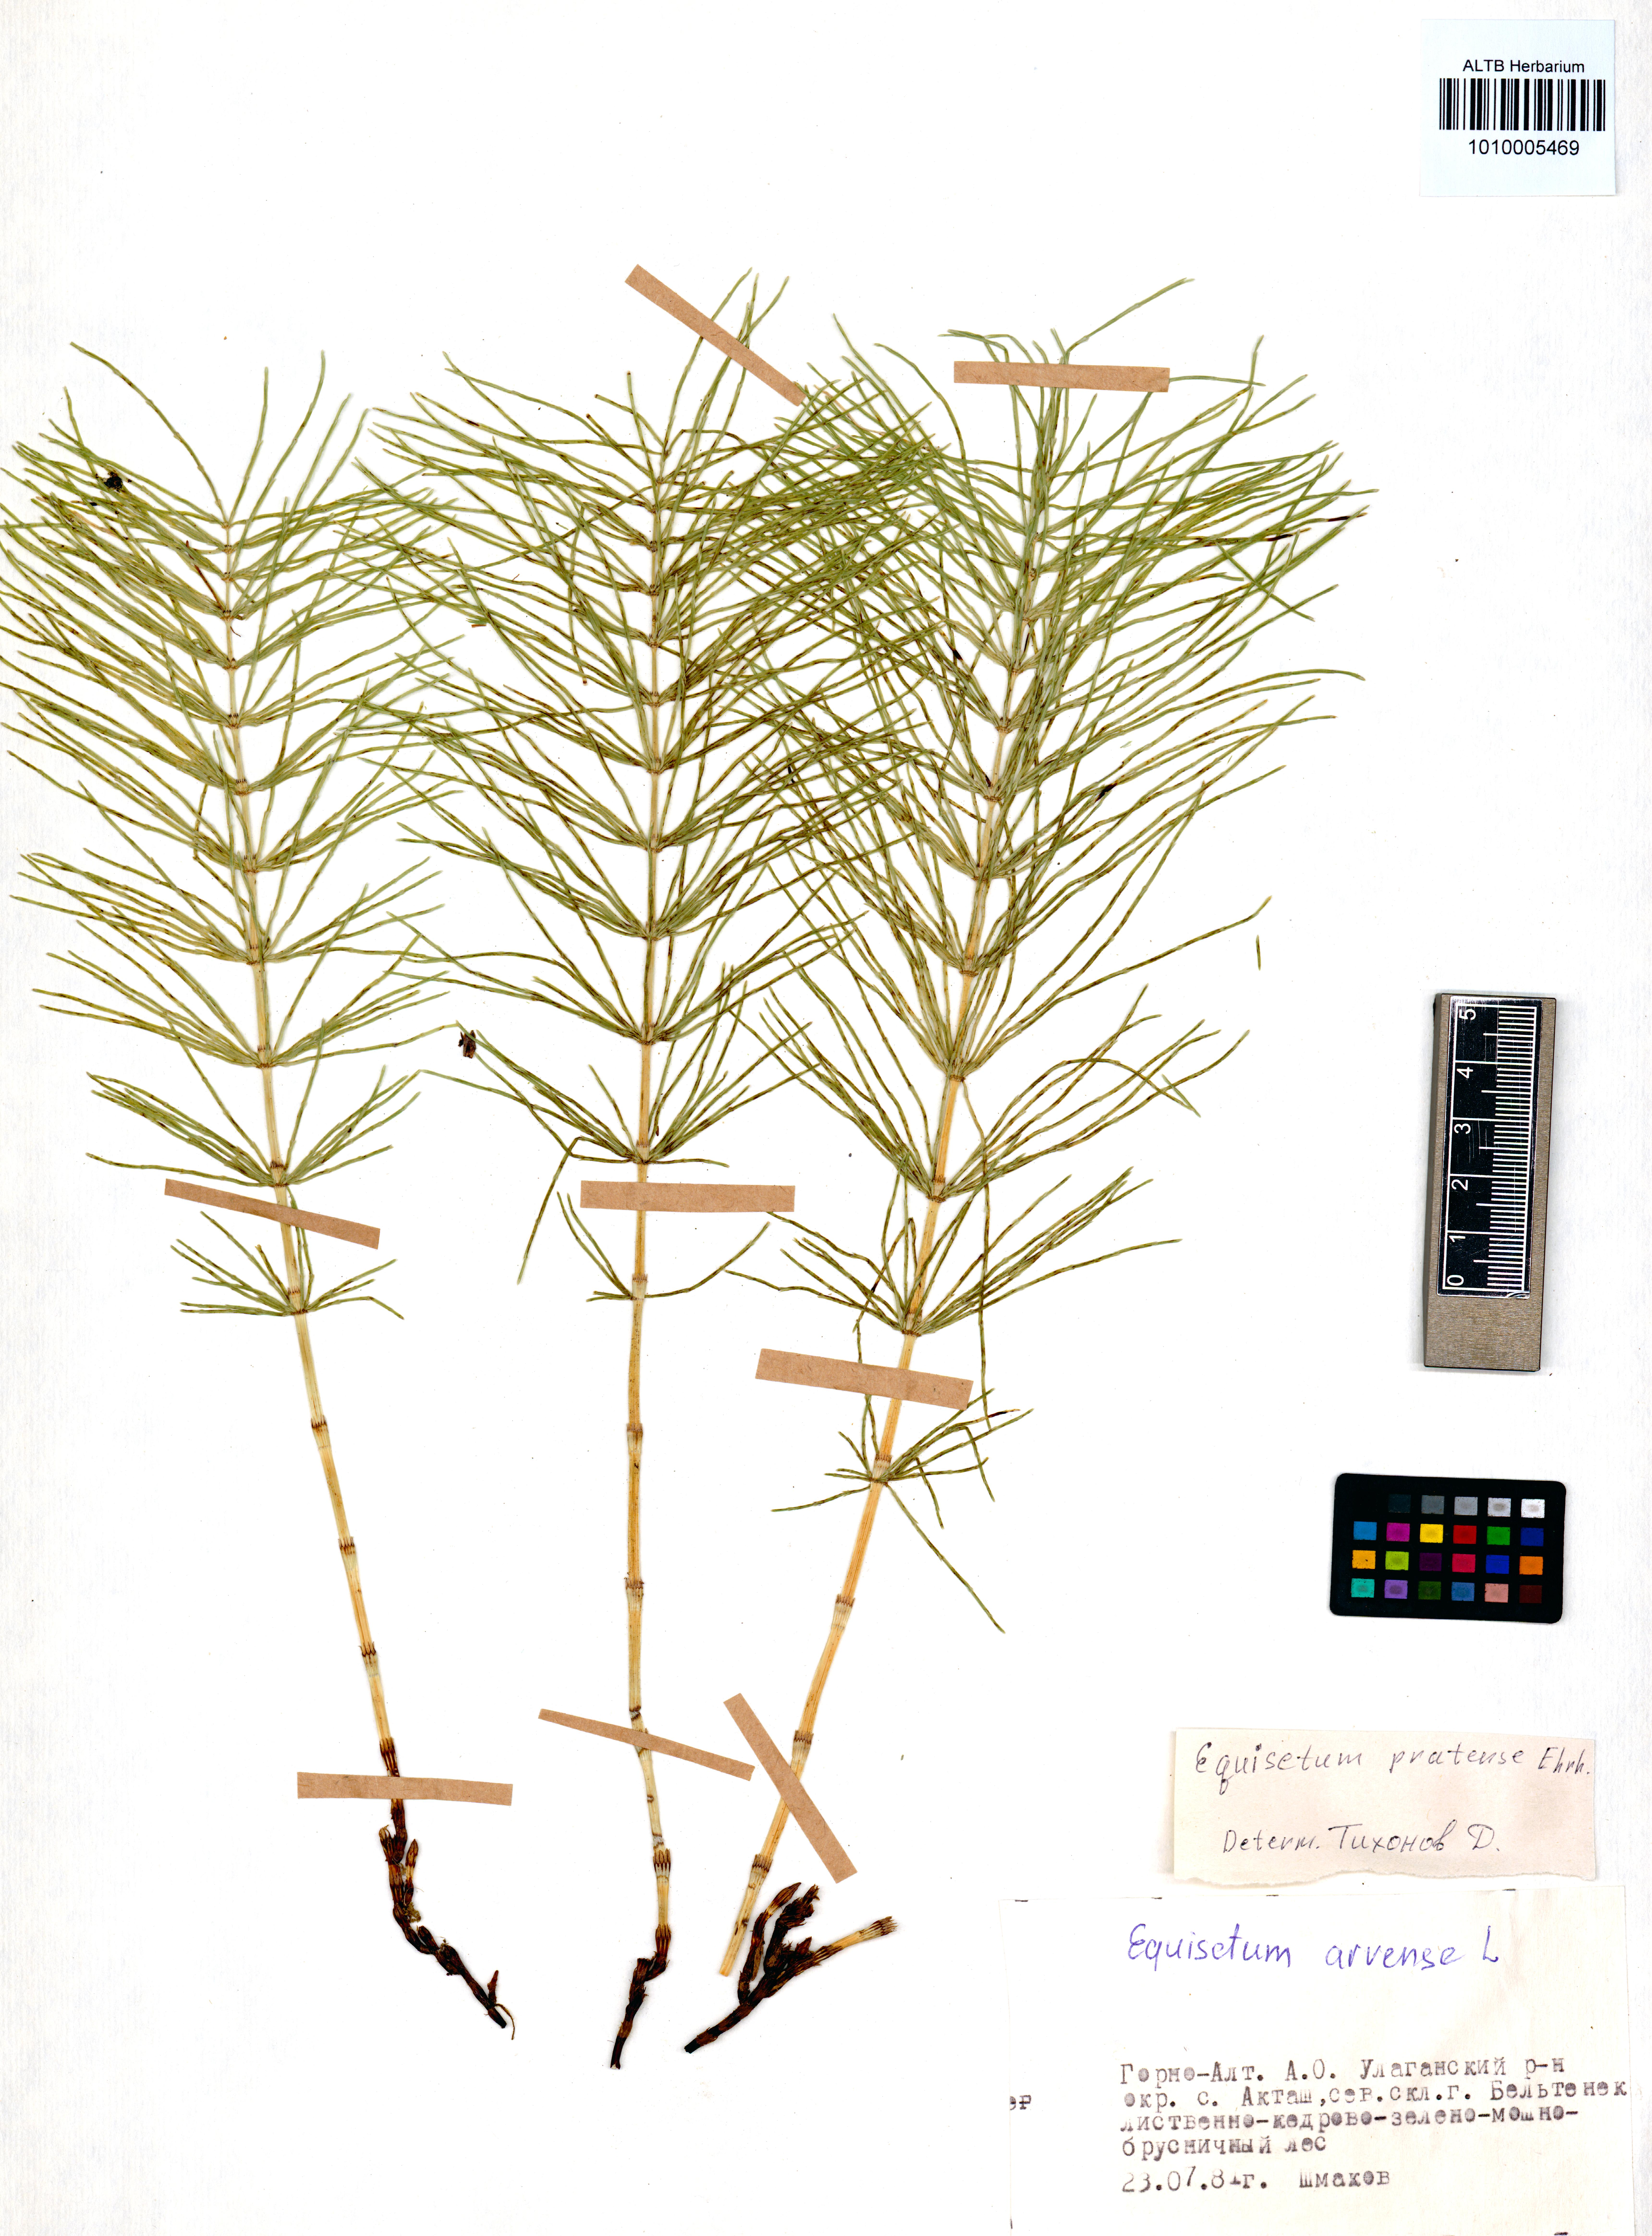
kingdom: Plantae
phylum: Tracheophyta
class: Polypodiopsida
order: Equisetales
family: Equisetaceae
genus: Equisetum
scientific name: Equisetum pratense
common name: Meadow horsetail
